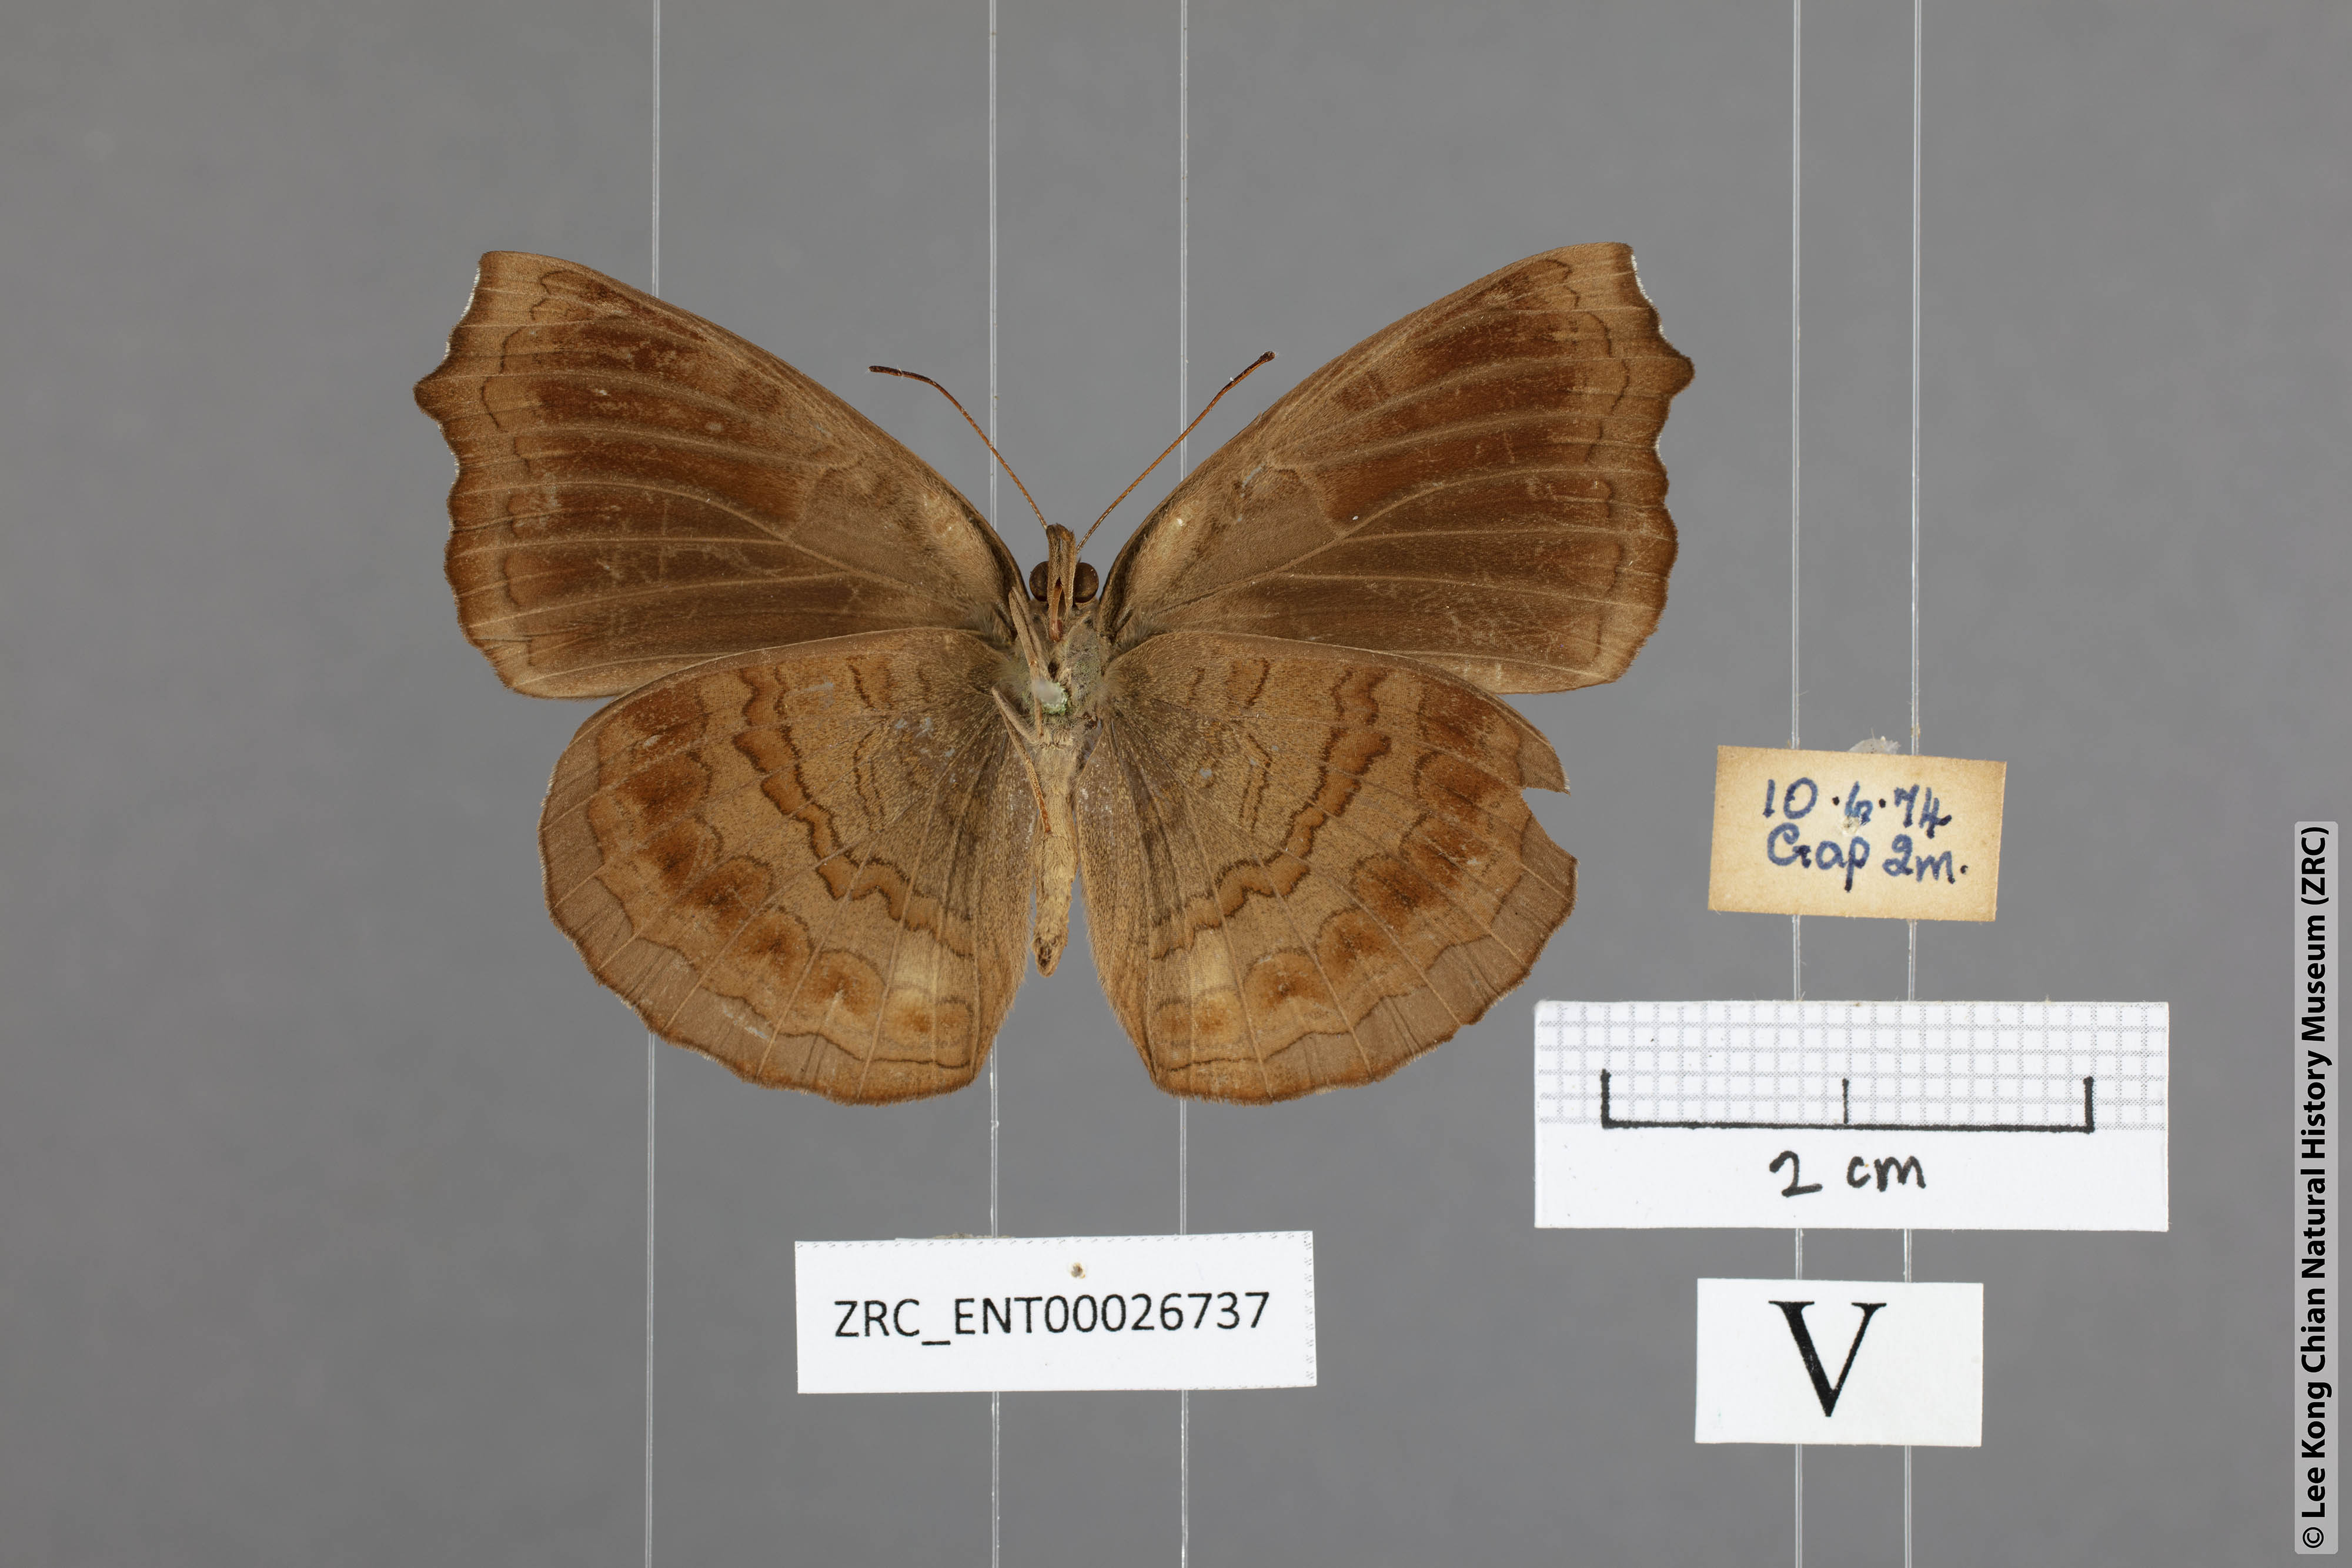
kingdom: Animalia
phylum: Arthropoda
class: Insecta
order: Lepidoptera
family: Nymphalidae
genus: Ariadne
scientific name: Ariadne isaeus
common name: Malayan castor
